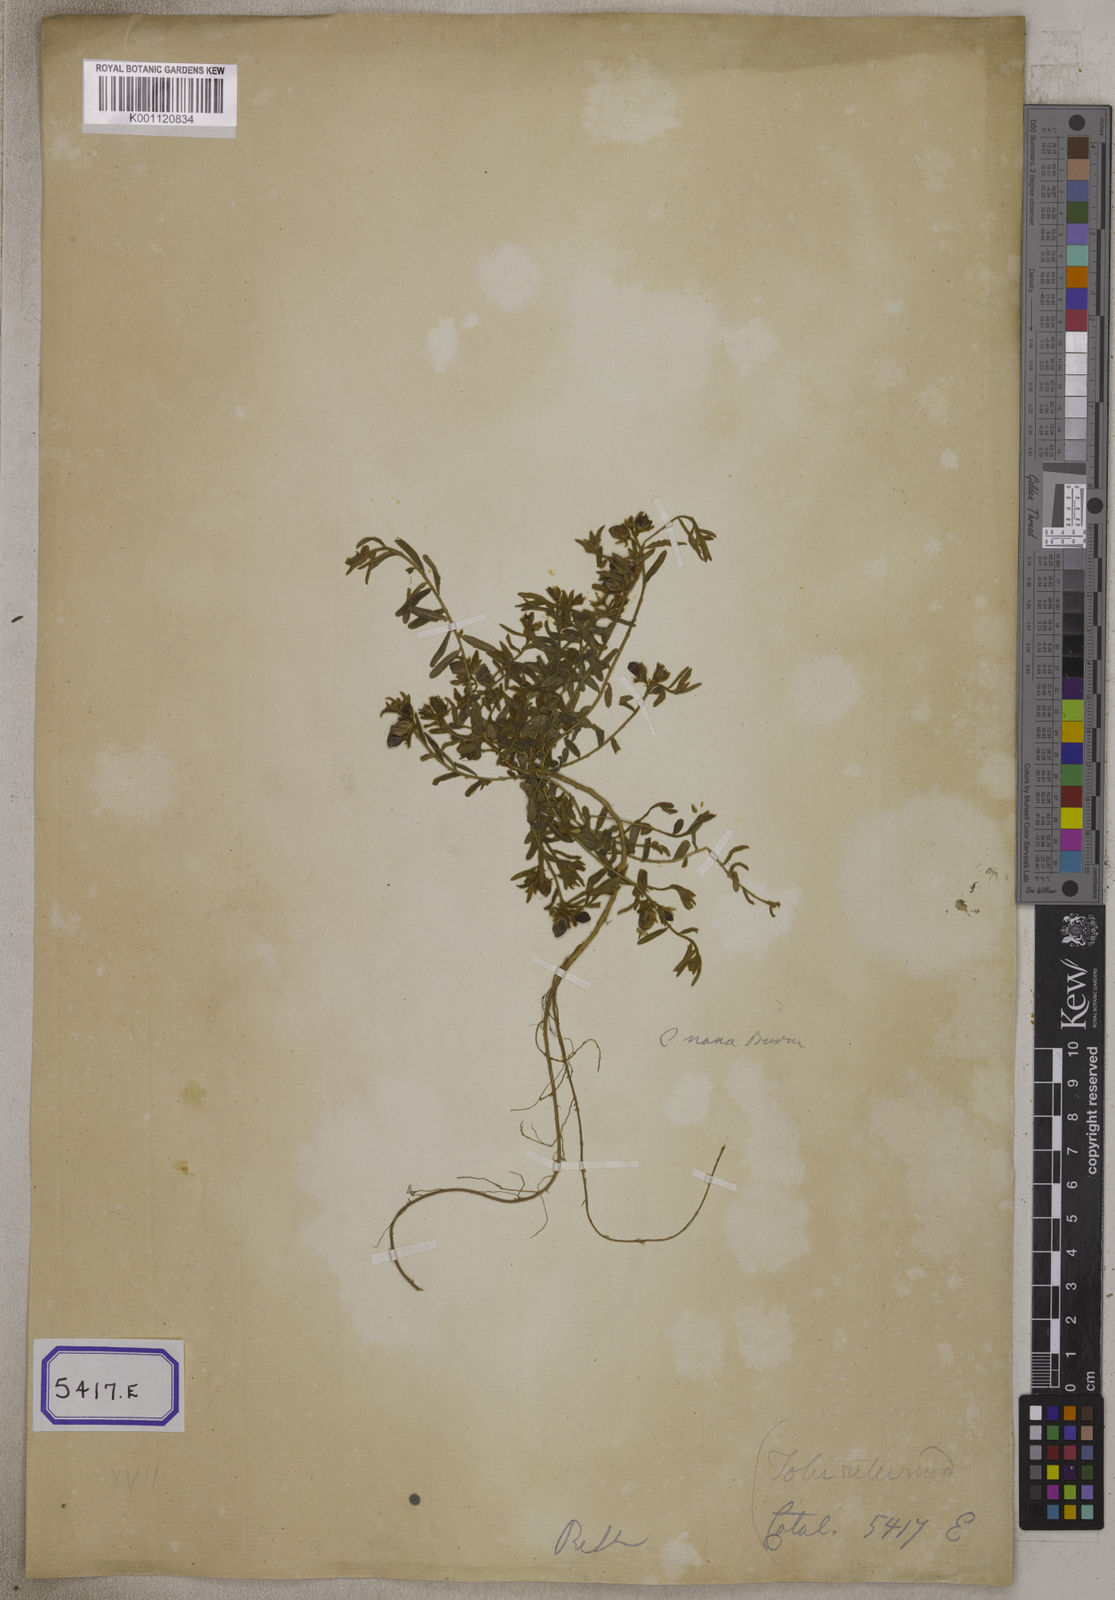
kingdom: Plantae
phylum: Tracheophyta
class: Magnoliopsida
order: Fabales
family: Fabaceae
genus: Crotalaria
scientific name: Crotalaria angulata
